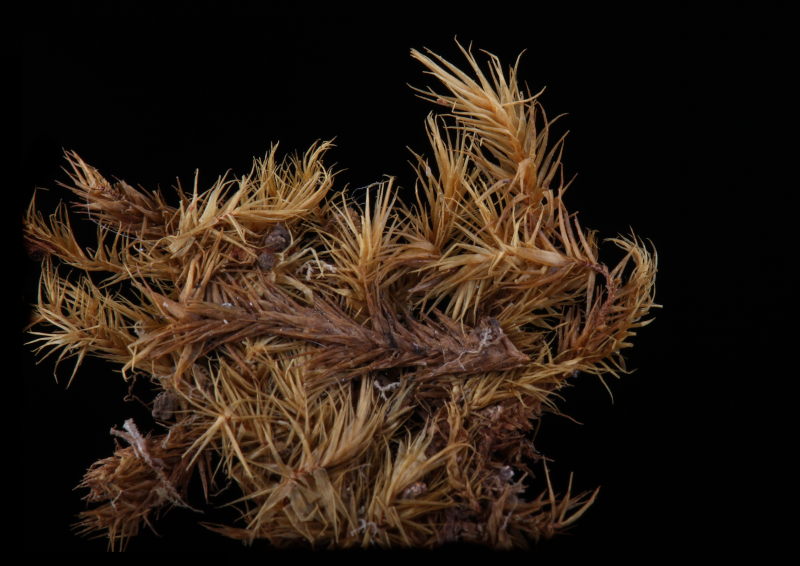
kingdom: Plantae
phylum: Bryophyta
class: Bryopsida
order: Hypnales
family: Sematophyllaceae
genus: Acroporium
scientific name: Acroporium affine
